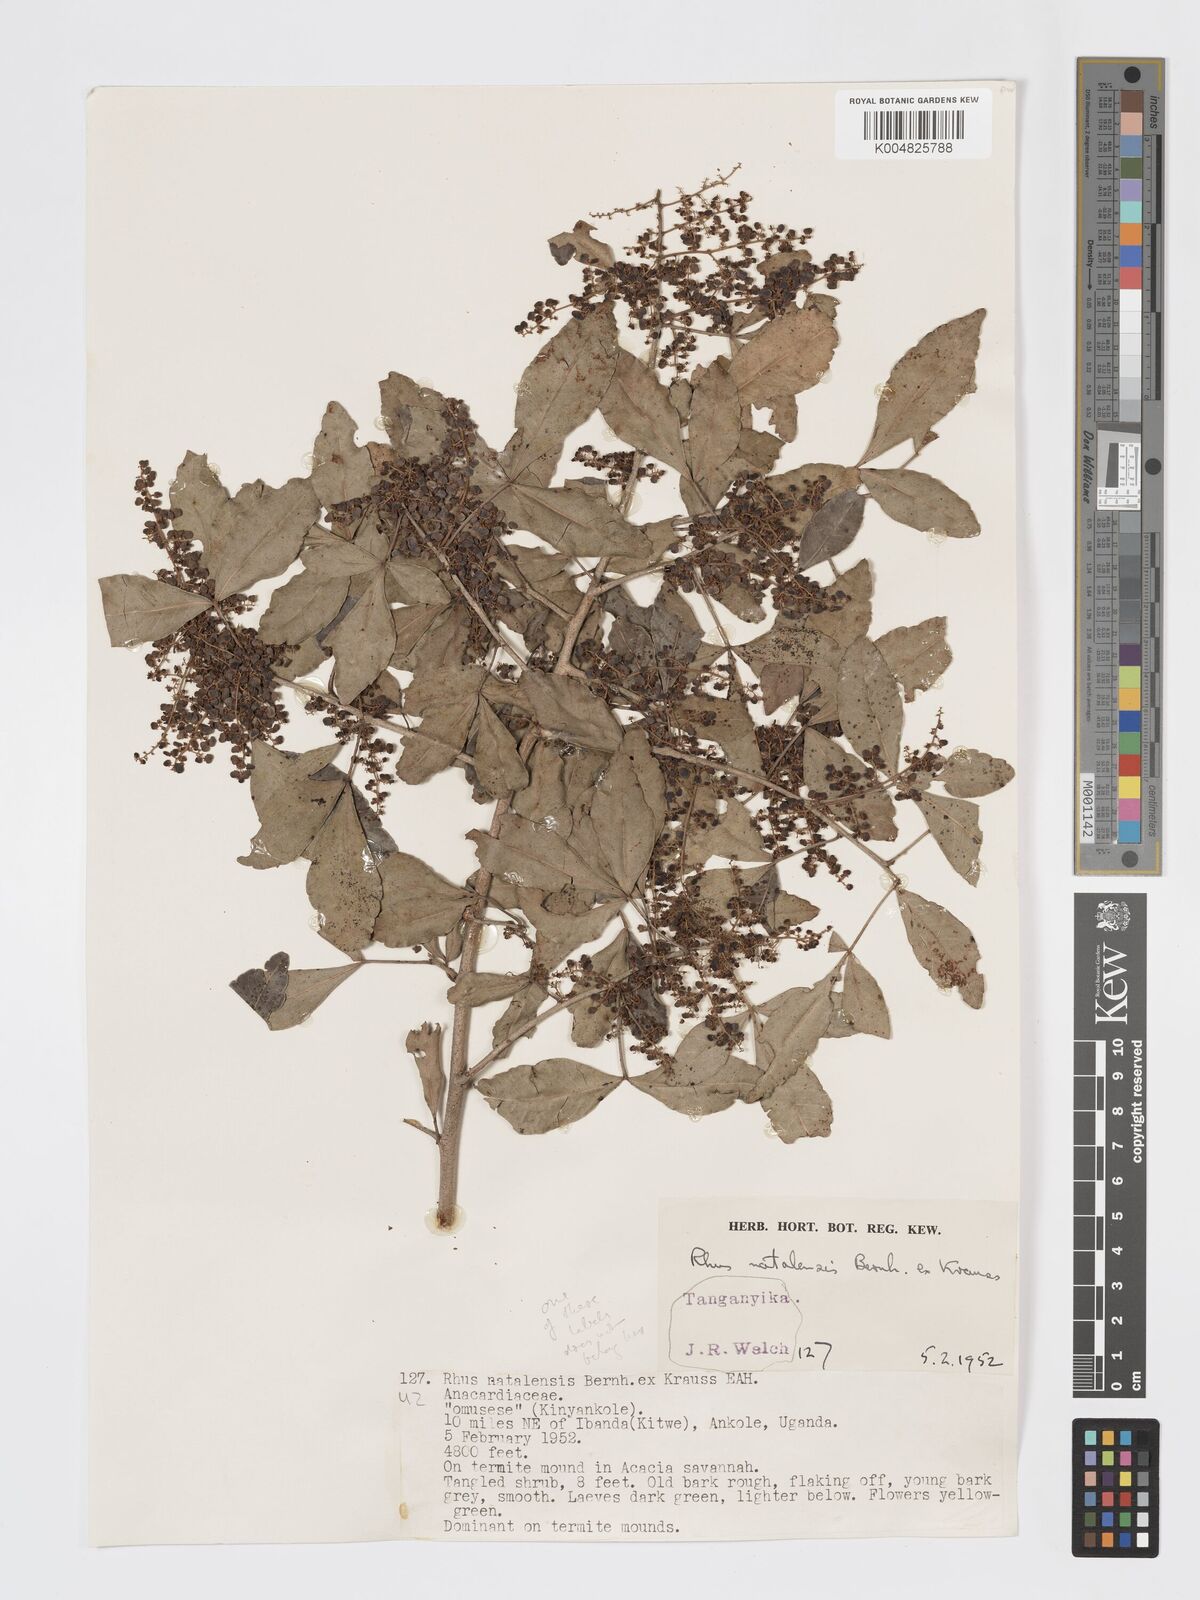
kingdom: Plantae
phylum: Tracheophyta
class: Magnoliopsida
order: Sapindales
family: Anacardiaceae
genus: Searsia
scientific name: Searsia natalensis
